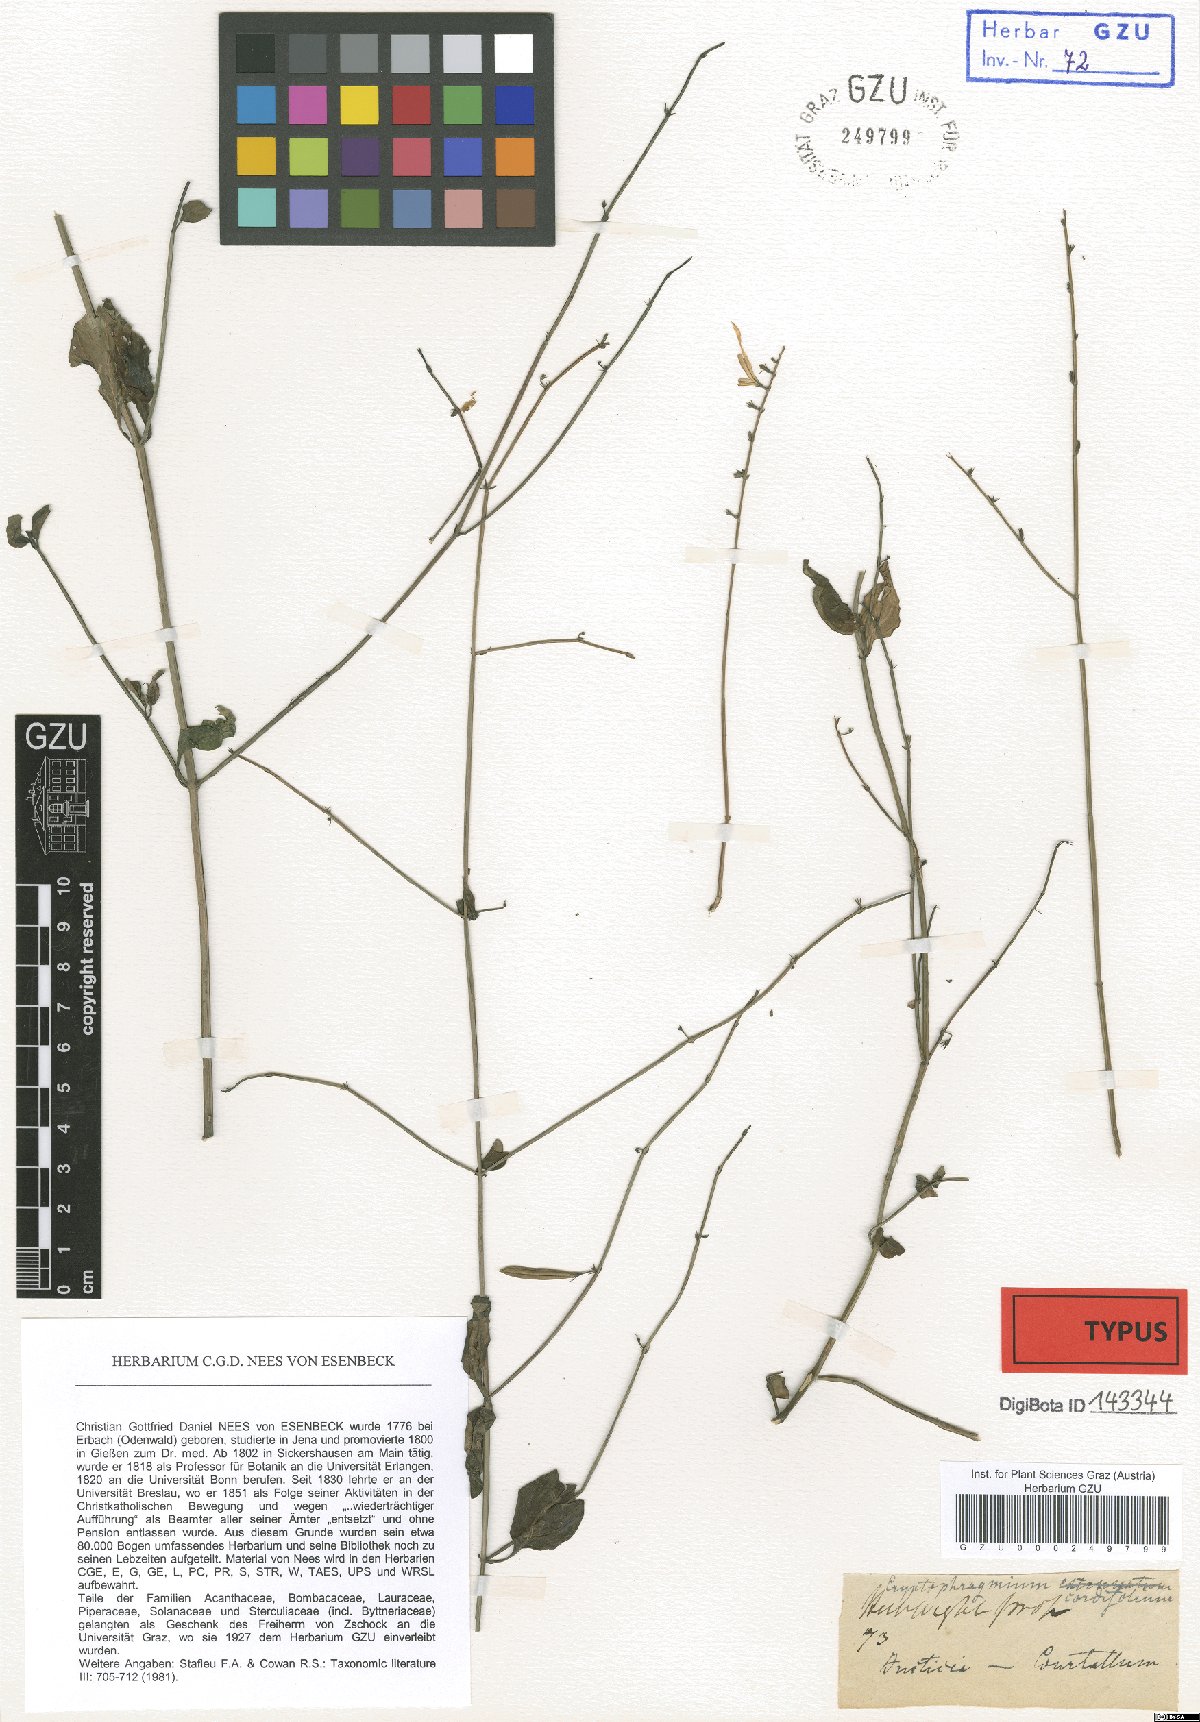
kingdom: Plantae
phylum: Tracheophyta
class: Magnoliopsida
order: Lamiales
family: Acanthaceae
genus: Andrographis
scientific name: Andrographis elongata
